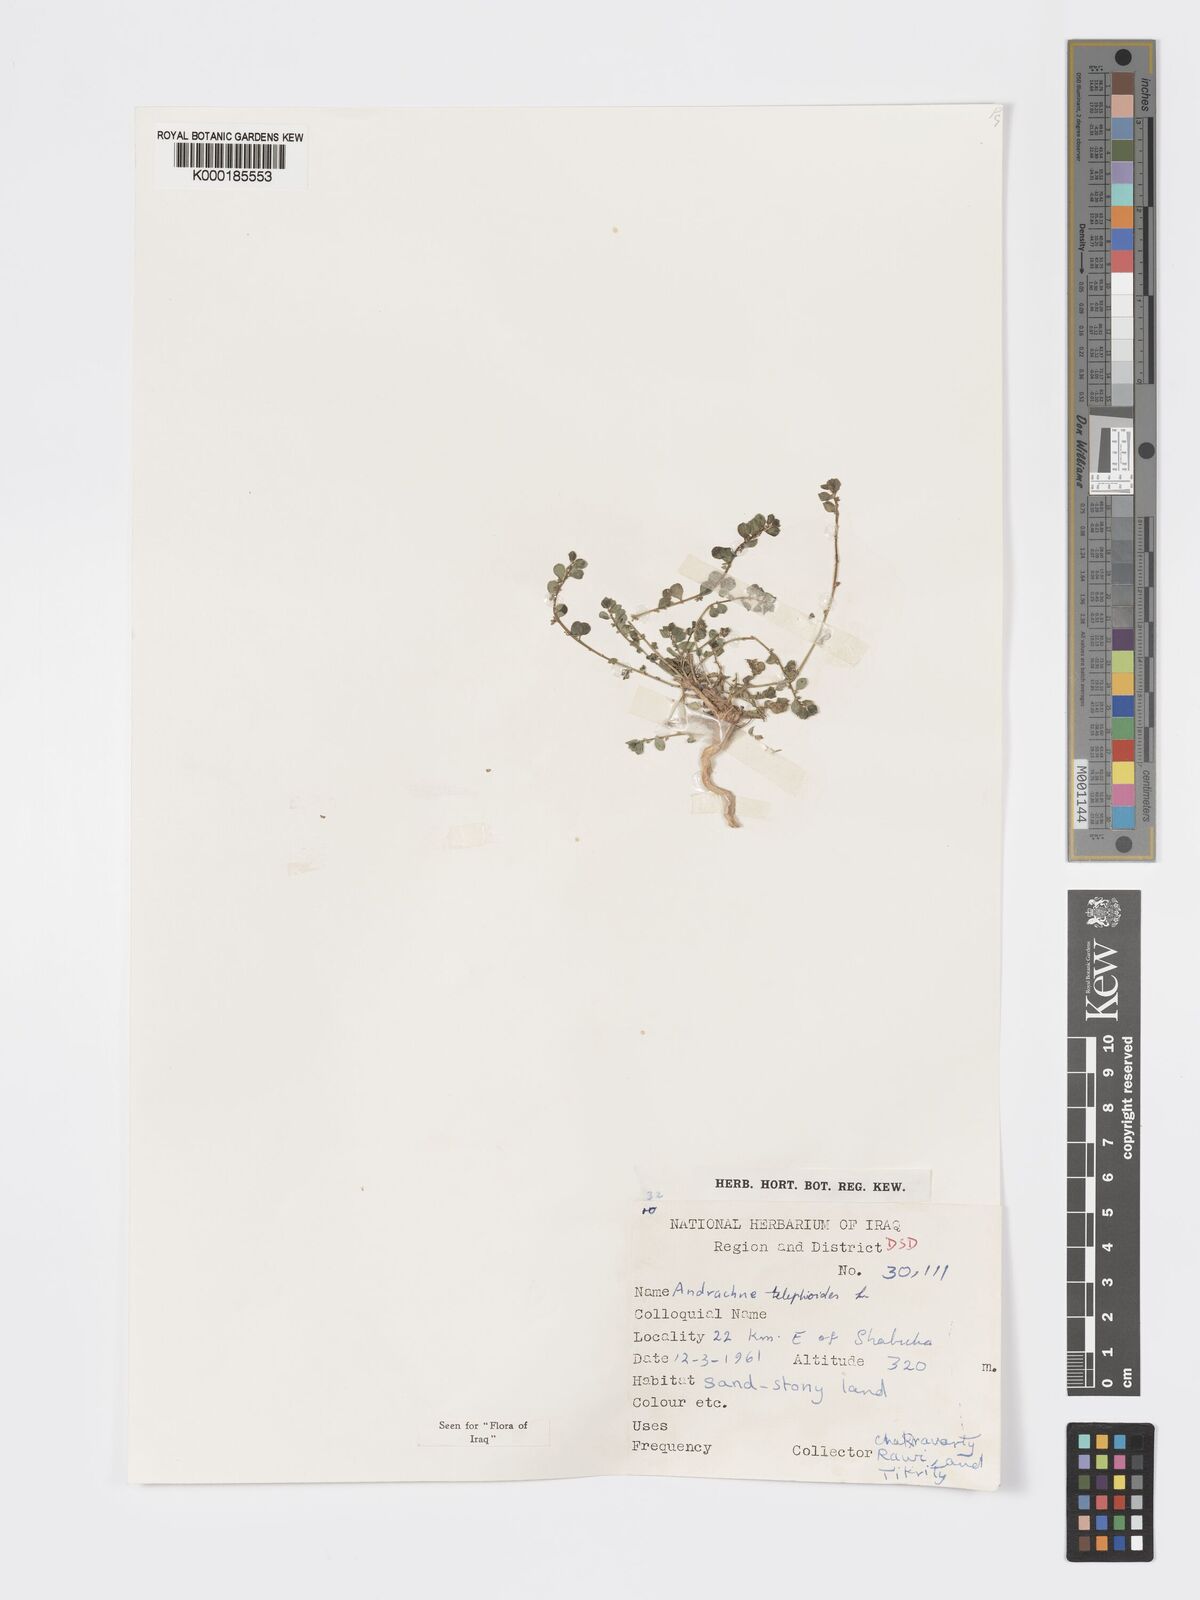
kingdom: Plantae
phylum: Tracheophyta
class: Magnoliopsida
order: Malpighiales
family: Phyllanthaceae
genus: Andrachne
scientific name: Andrachne telephioides
